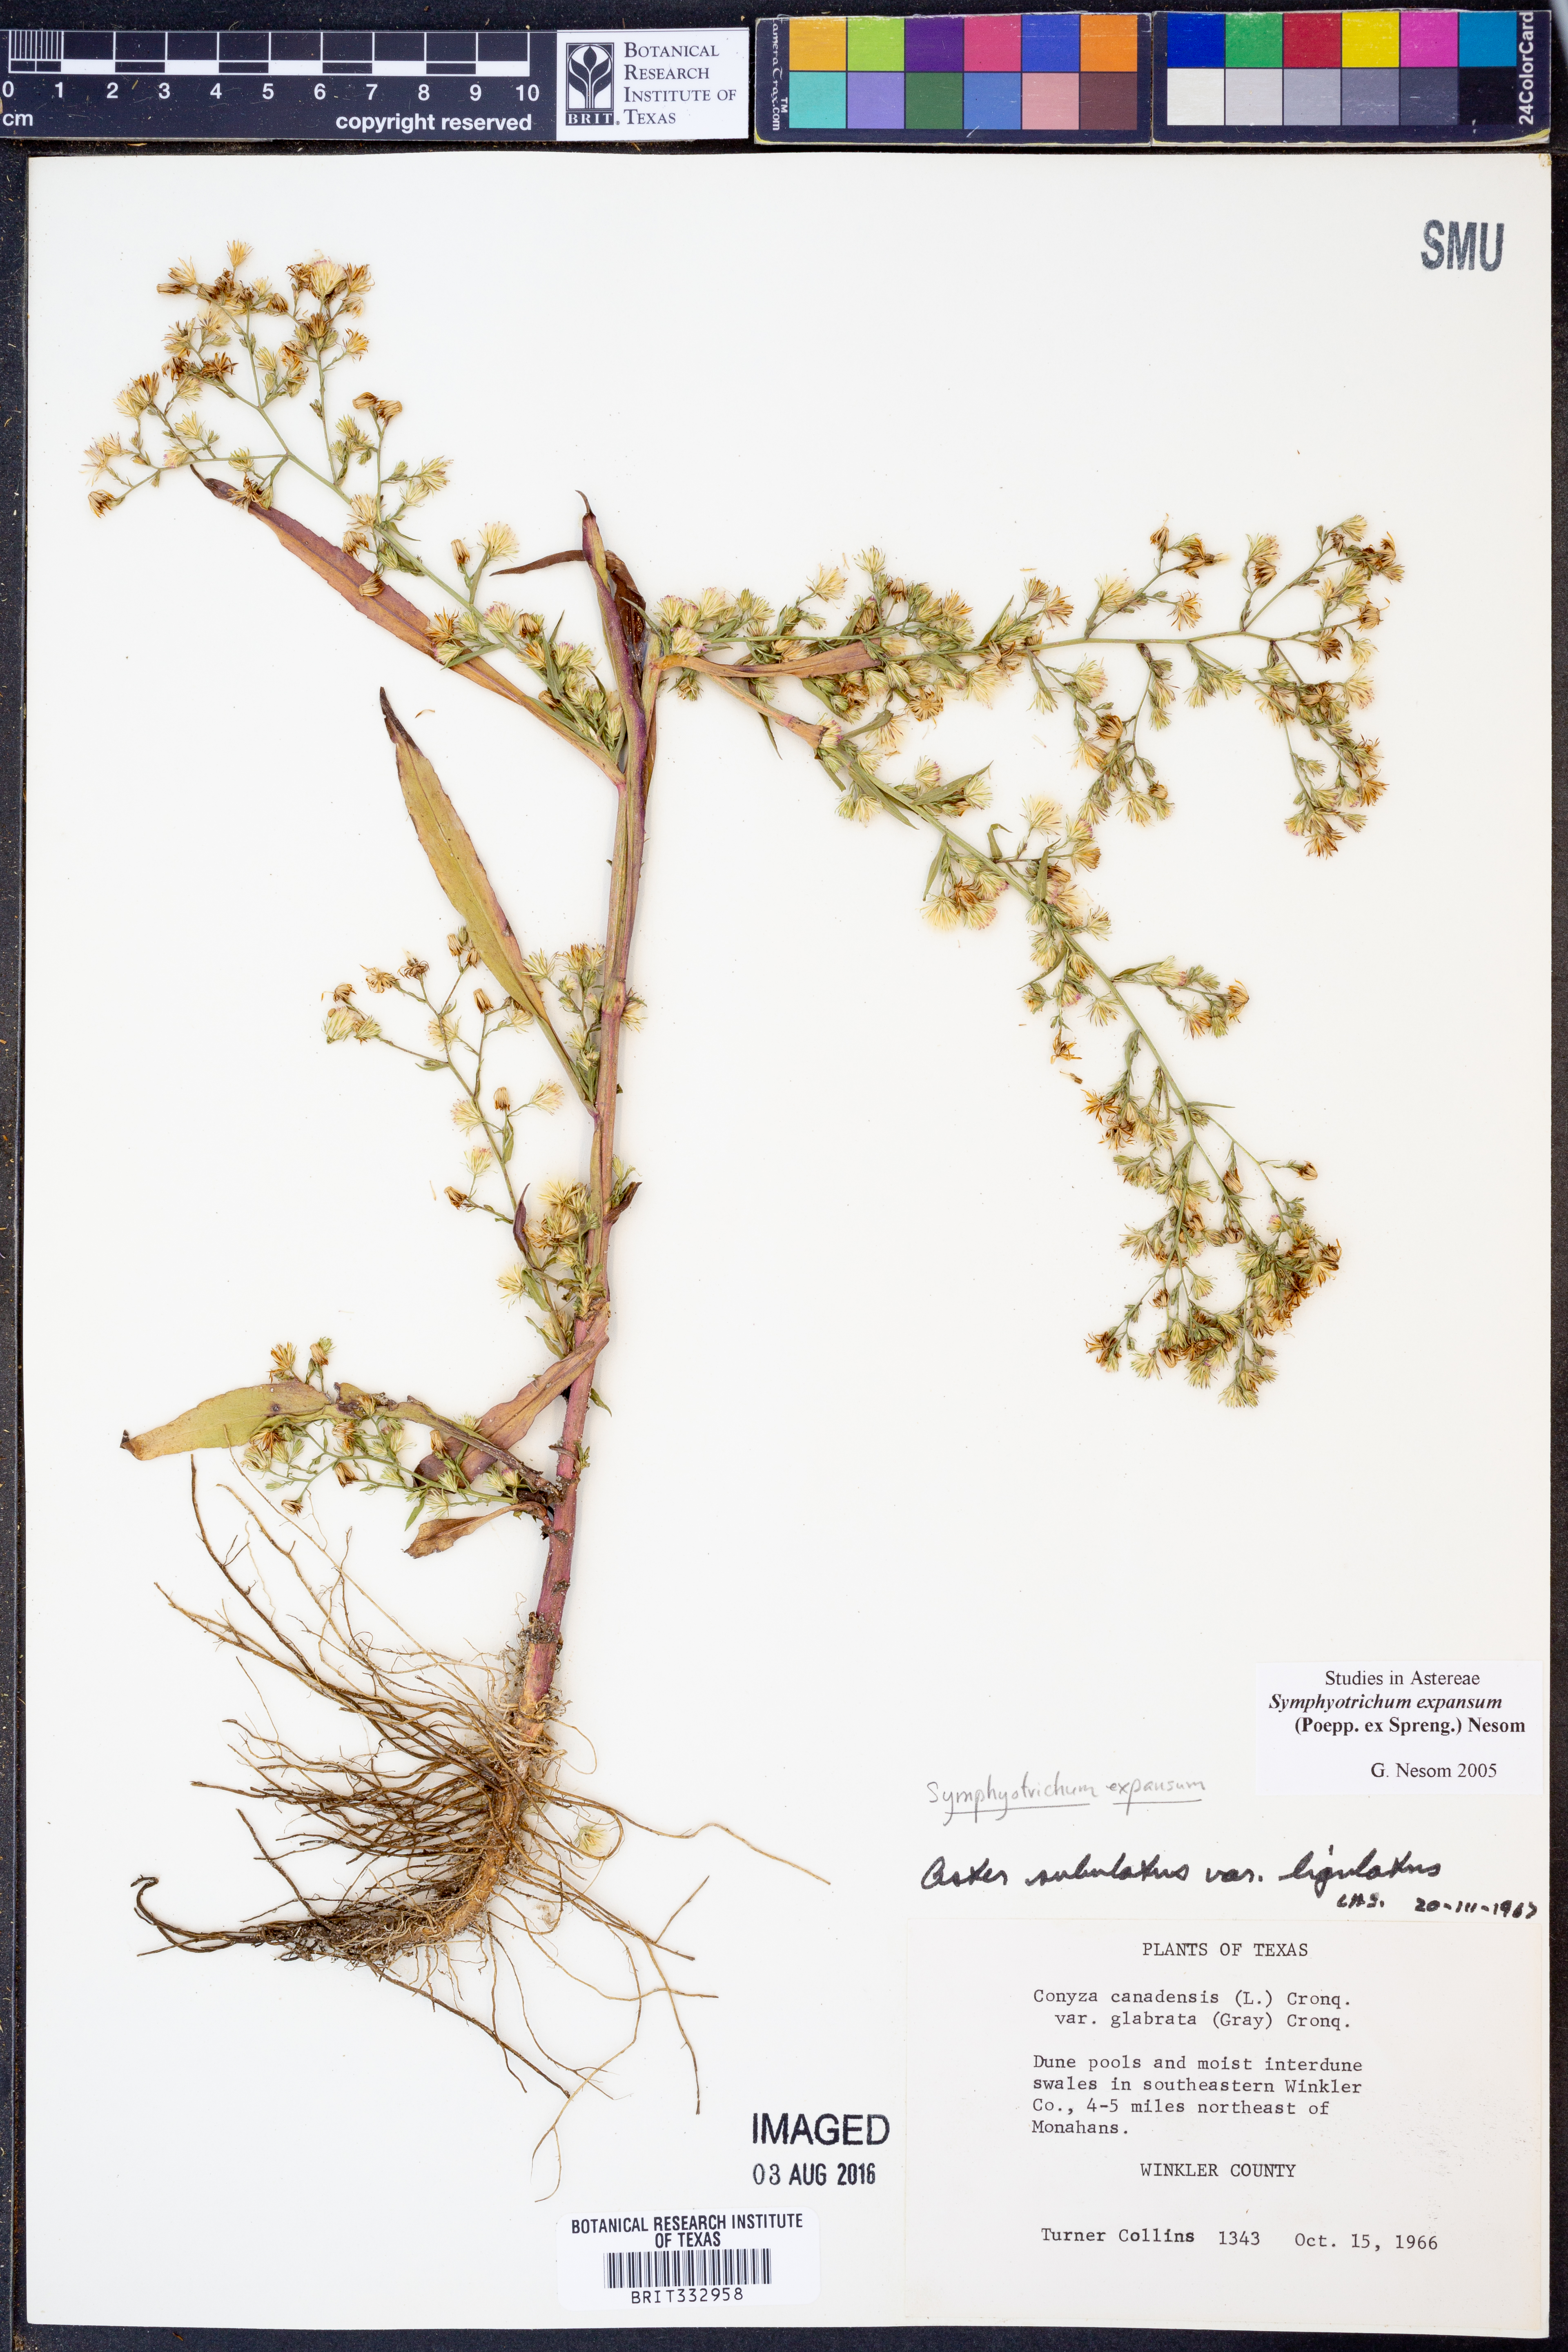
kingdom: Plantae
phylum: Tracheophyta
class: Magnoliopsida
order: Asterales
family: Asteraceae
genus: Symphyotrichum
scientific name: Symphyotrichum expansum
